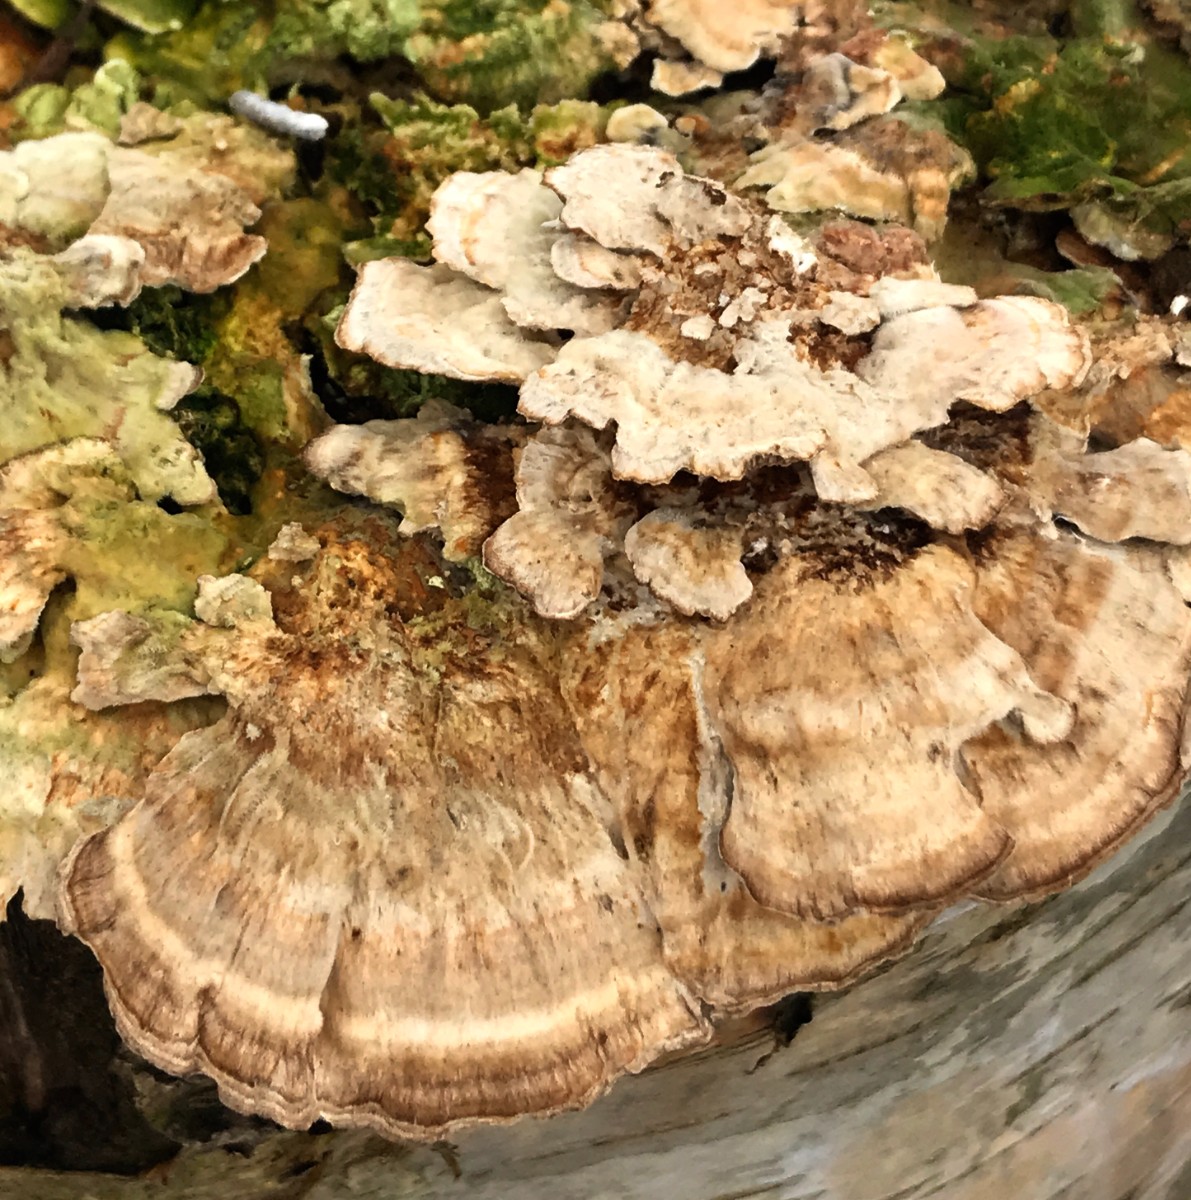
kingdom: Fungi
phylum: Basidiomycota
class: Agaricomycetes
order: Polyporales
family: Polyporaceae
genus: Trametes
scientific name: Trametes ochracea
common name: bæltet læderporesvamp
